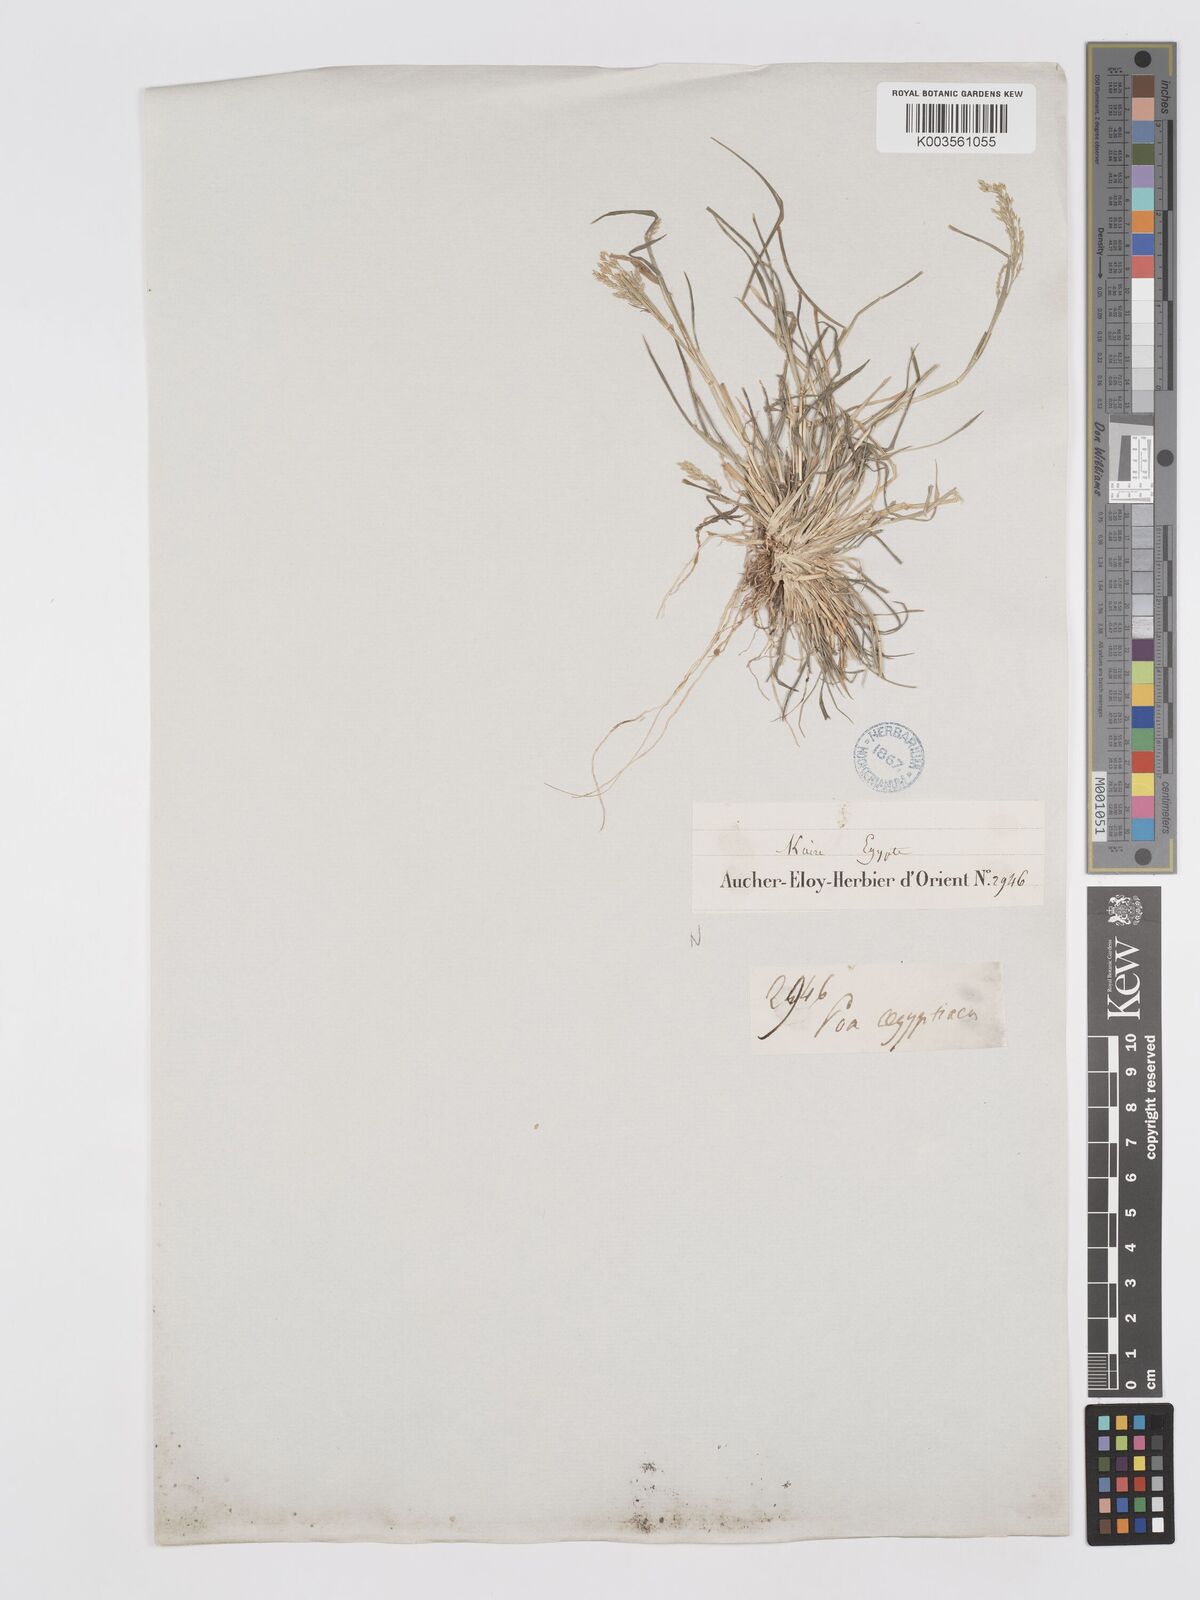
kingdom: Plantae
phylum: Tracheophyta
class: Liliopsida
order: Poales
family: Poaceae
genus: Eragrostis
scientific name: Eragrostis aegyptiaca
